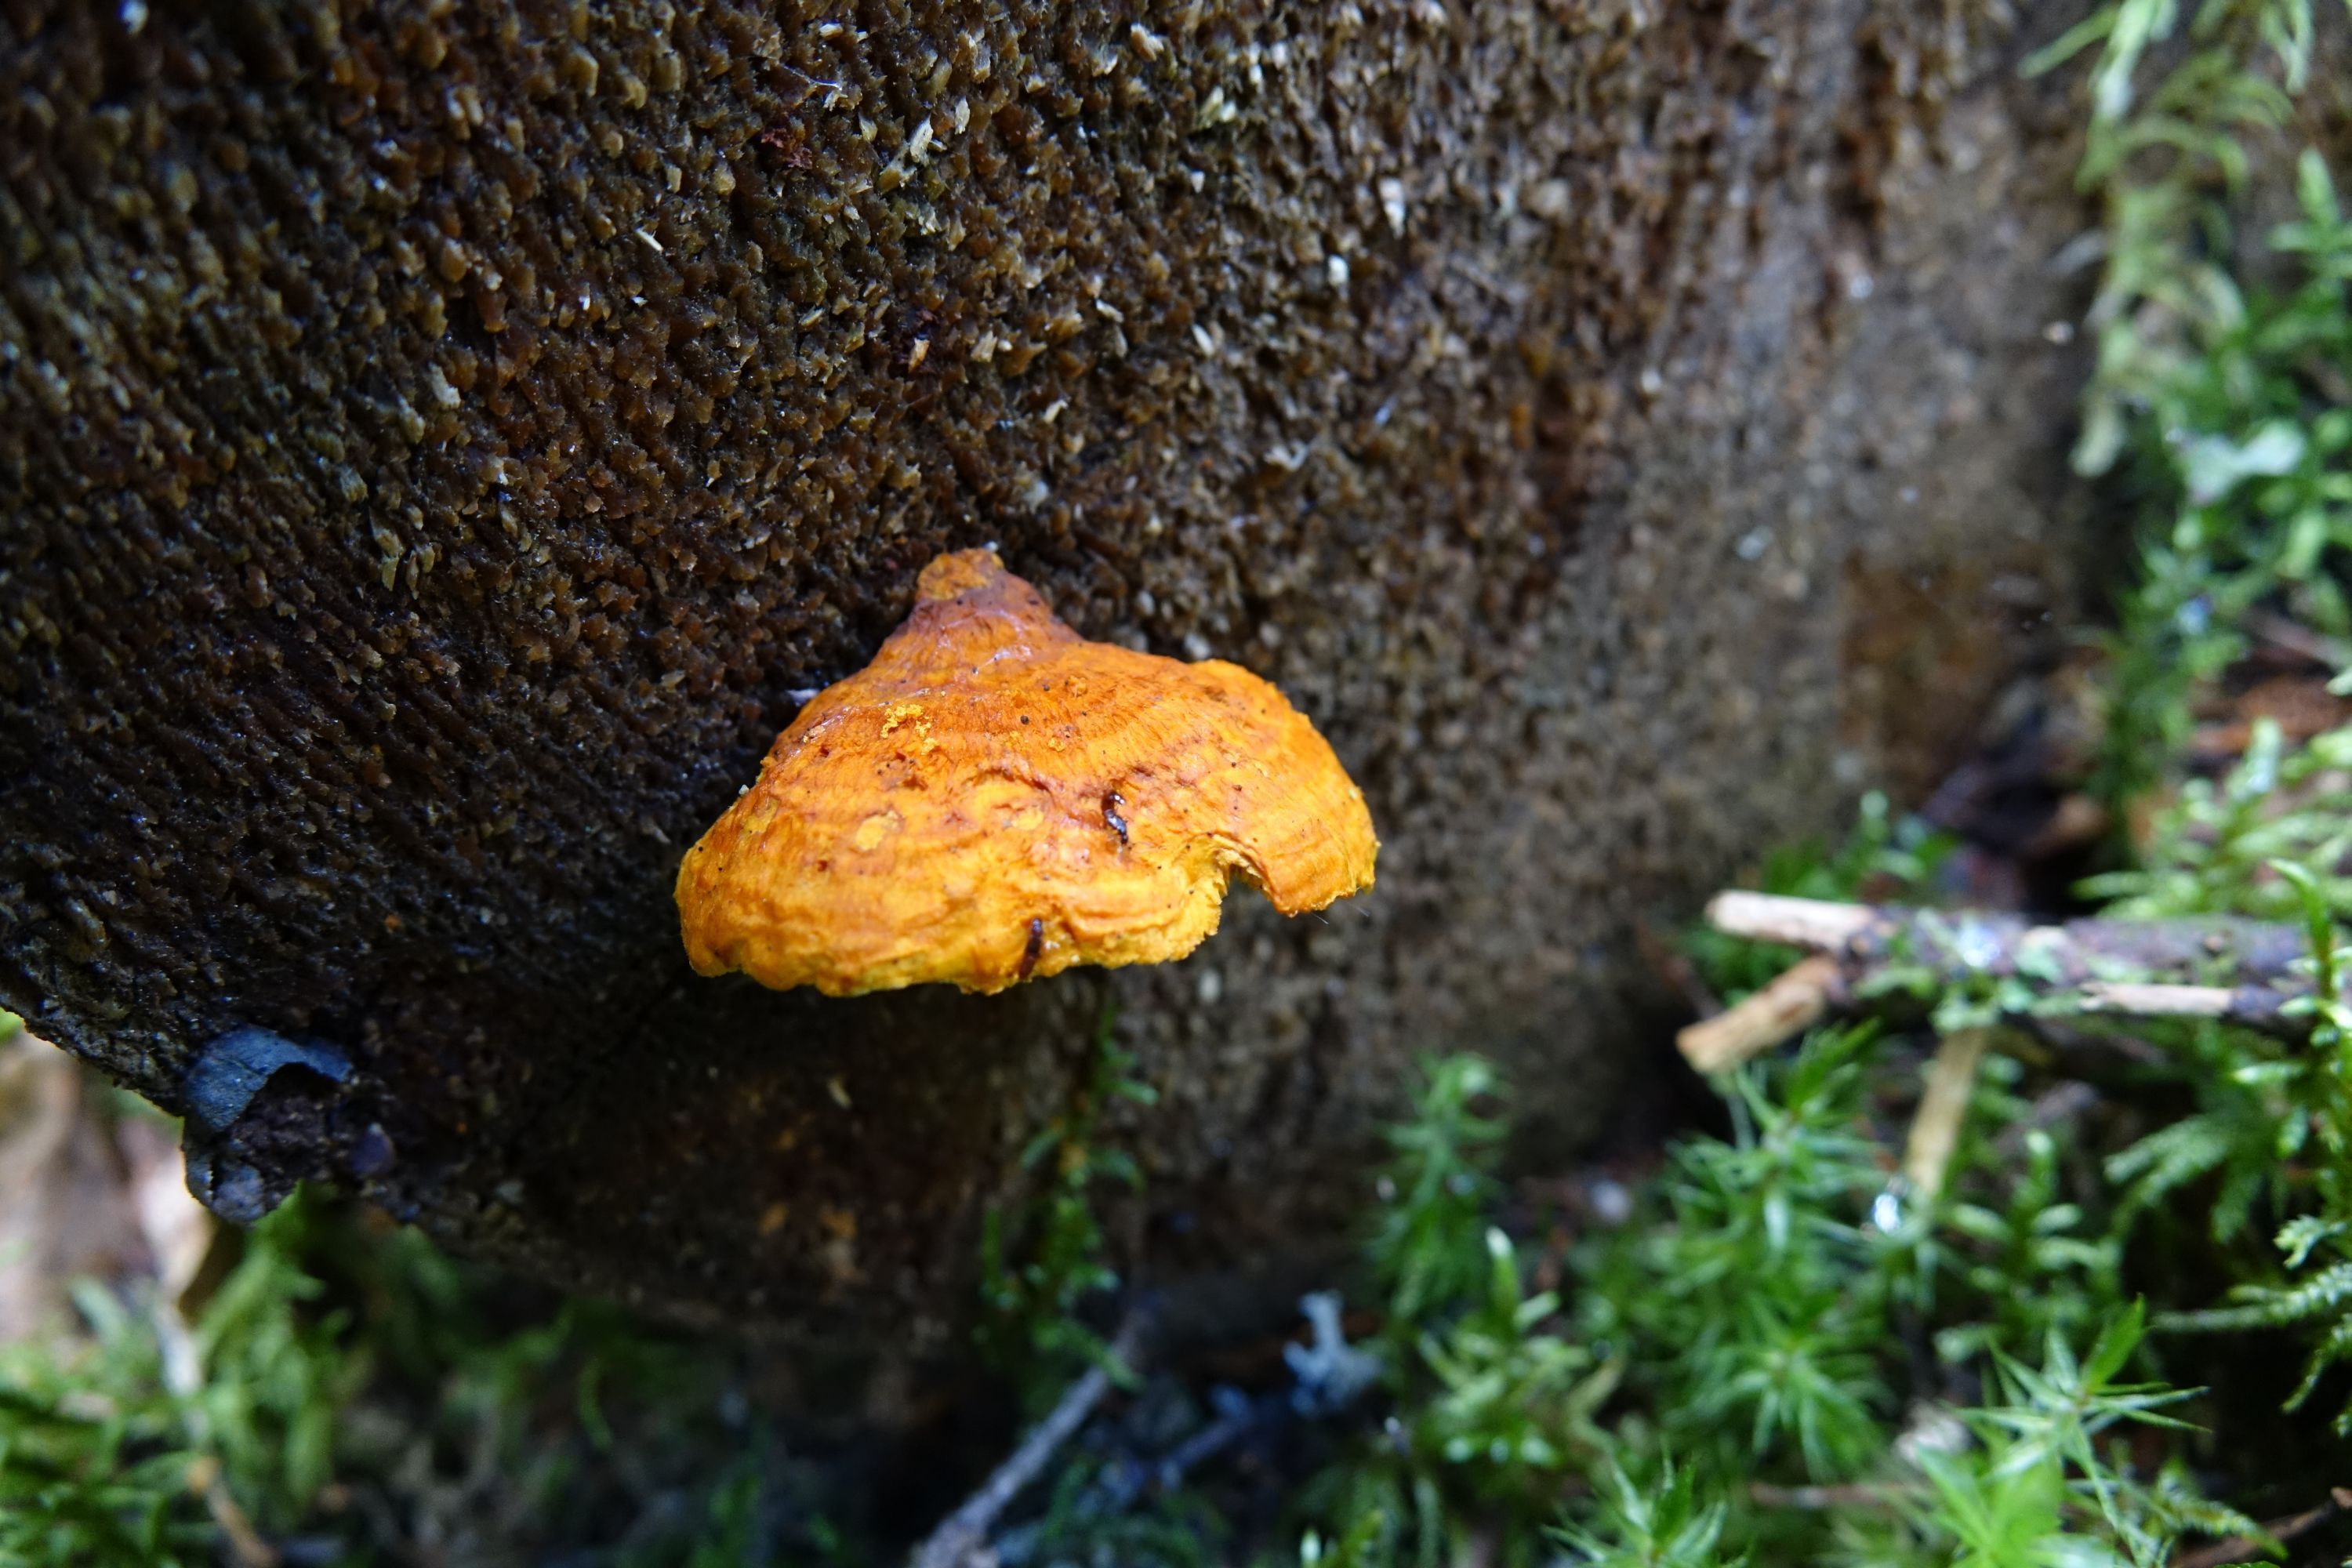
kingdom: Fungi
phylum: Basidiomycota
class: Agaricomycetes
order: Polyporales
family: Pycnoporellaceae
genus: Pycnoporellus
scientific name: Pycnoporellus fulgens
